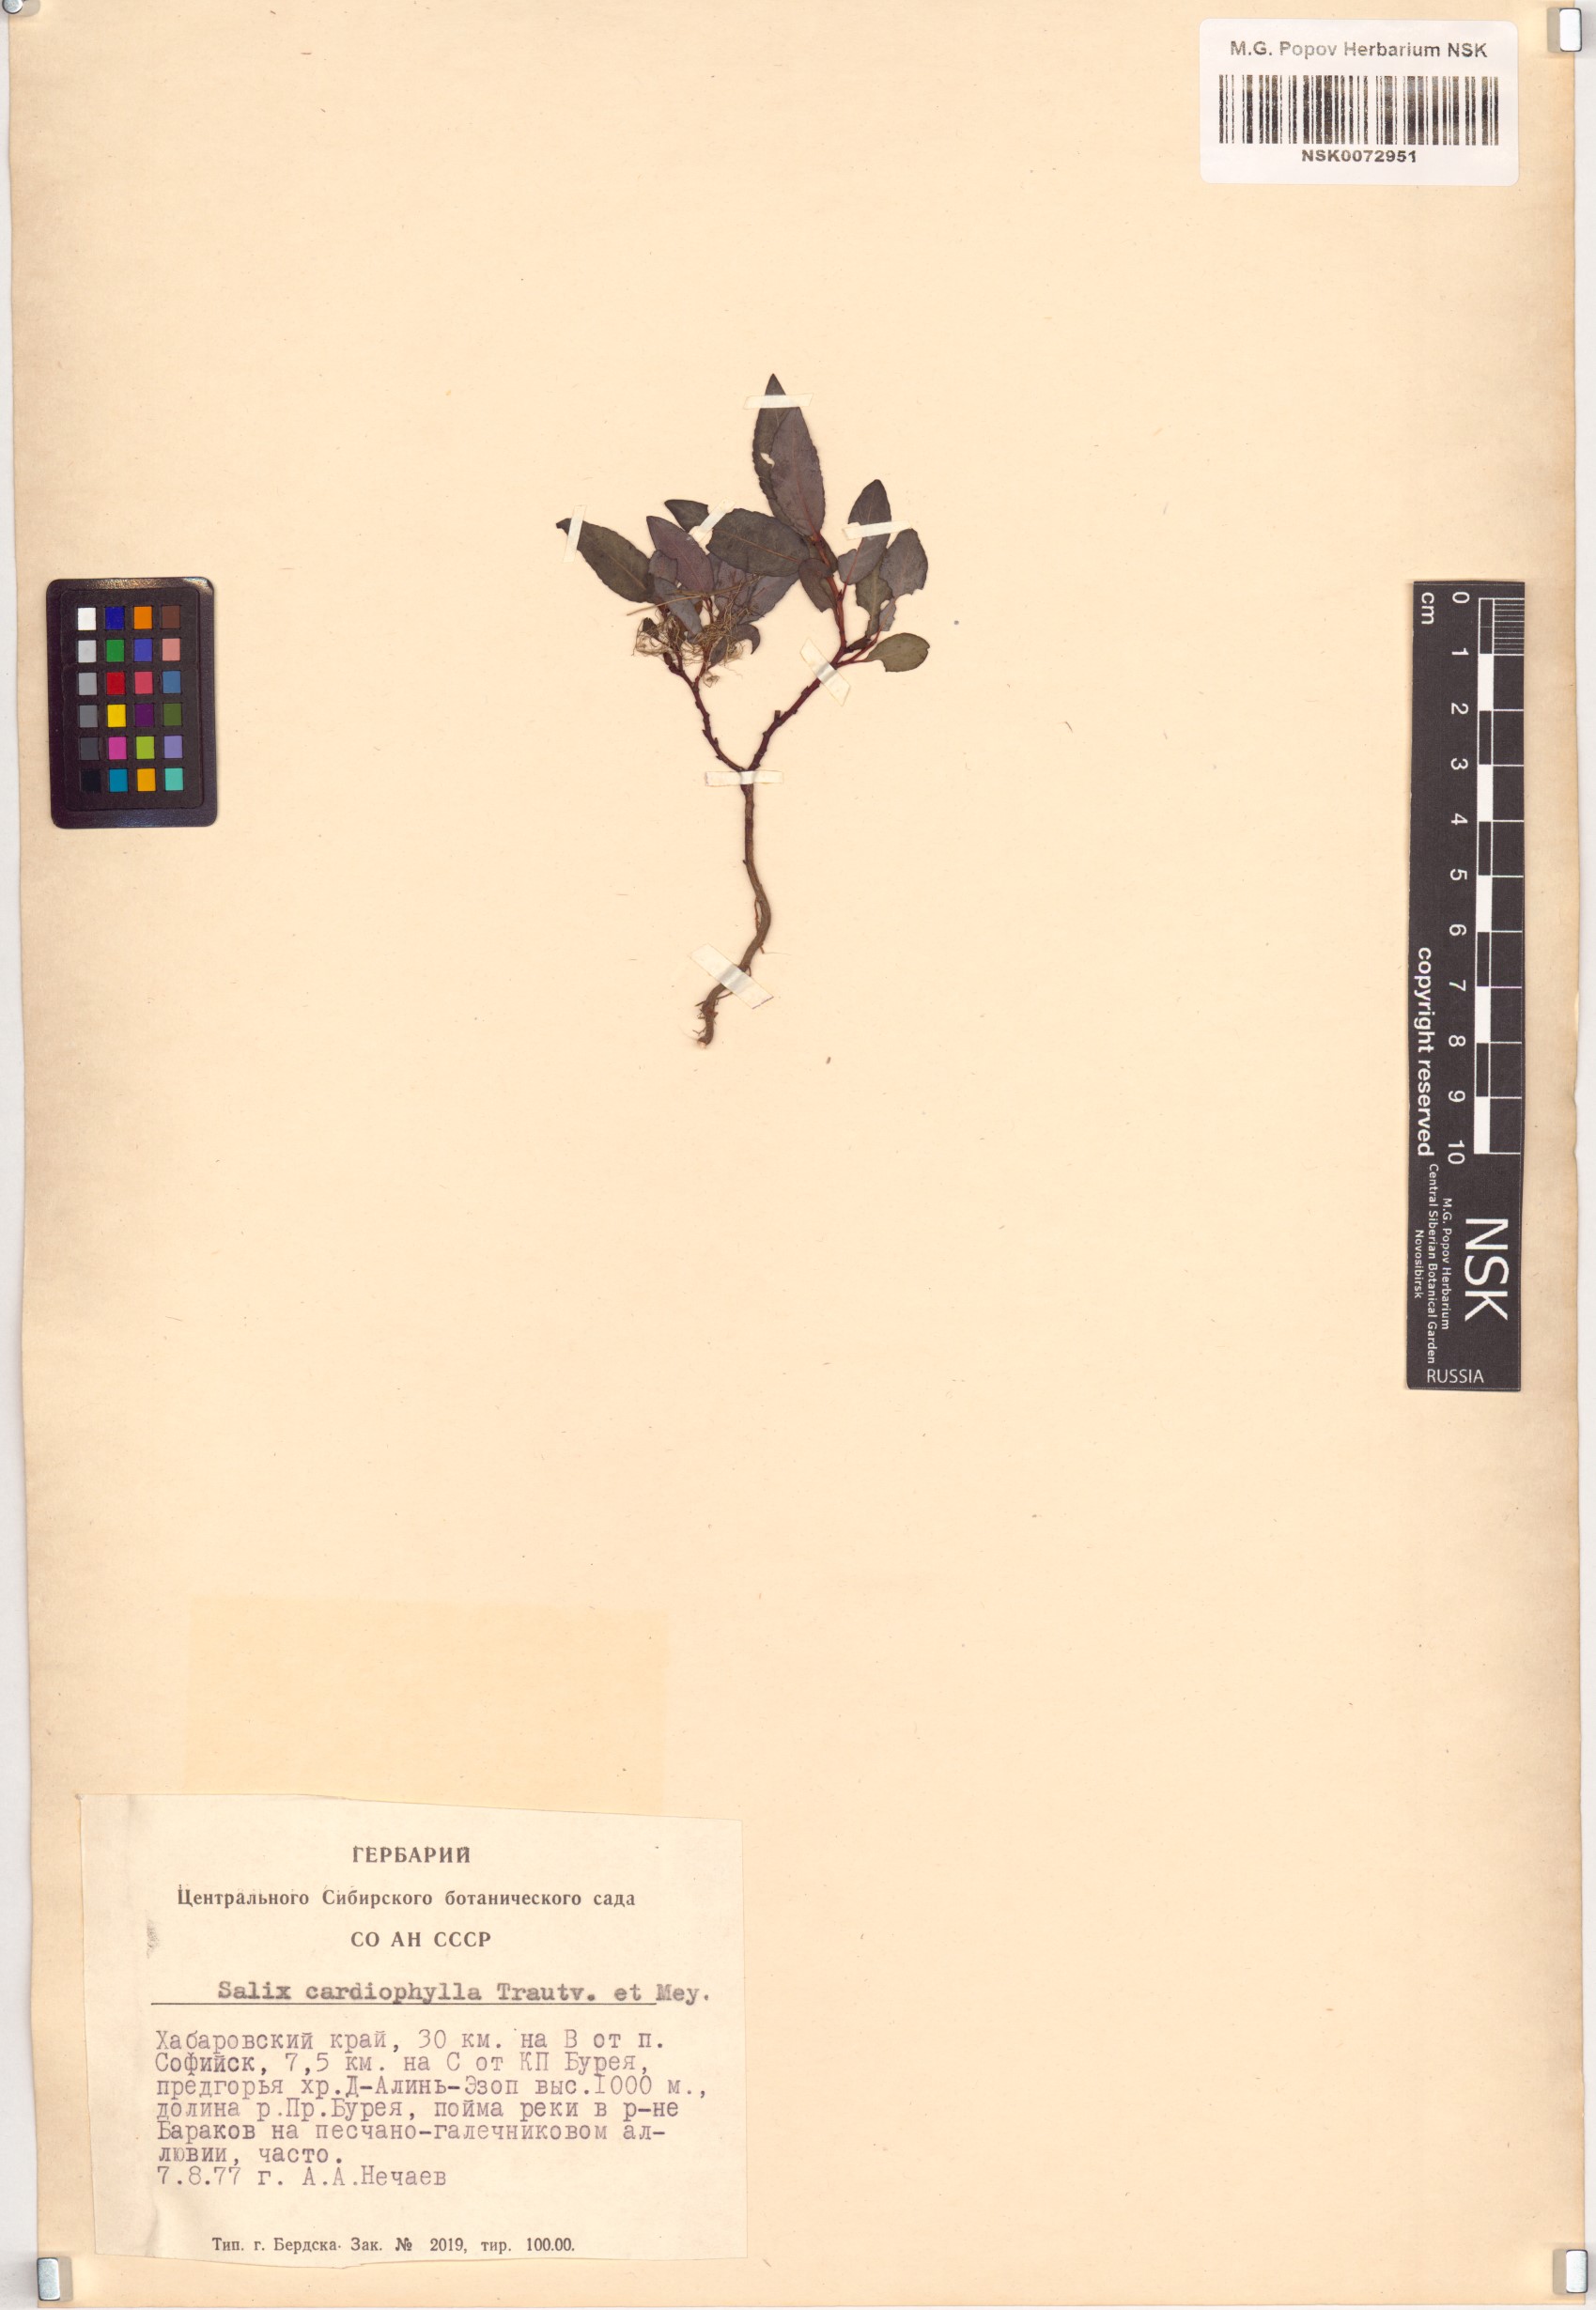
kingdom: Plantae
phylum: Tracheophyta
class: Magnoliopsida
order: Malpighiales
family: Salicaceae
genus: Chosenia
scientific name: Chosenia cardiophylla
